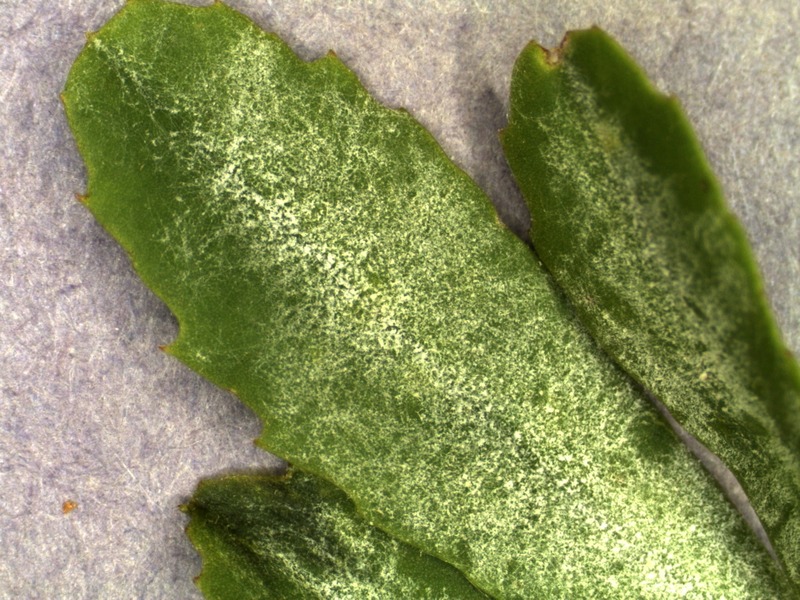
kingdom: Fungi
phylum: Ascomycota
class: Leotiomycetes
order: Helotiales
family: Erysiphaceae
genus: Erysiphe
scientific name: Erysiphe trifolii
